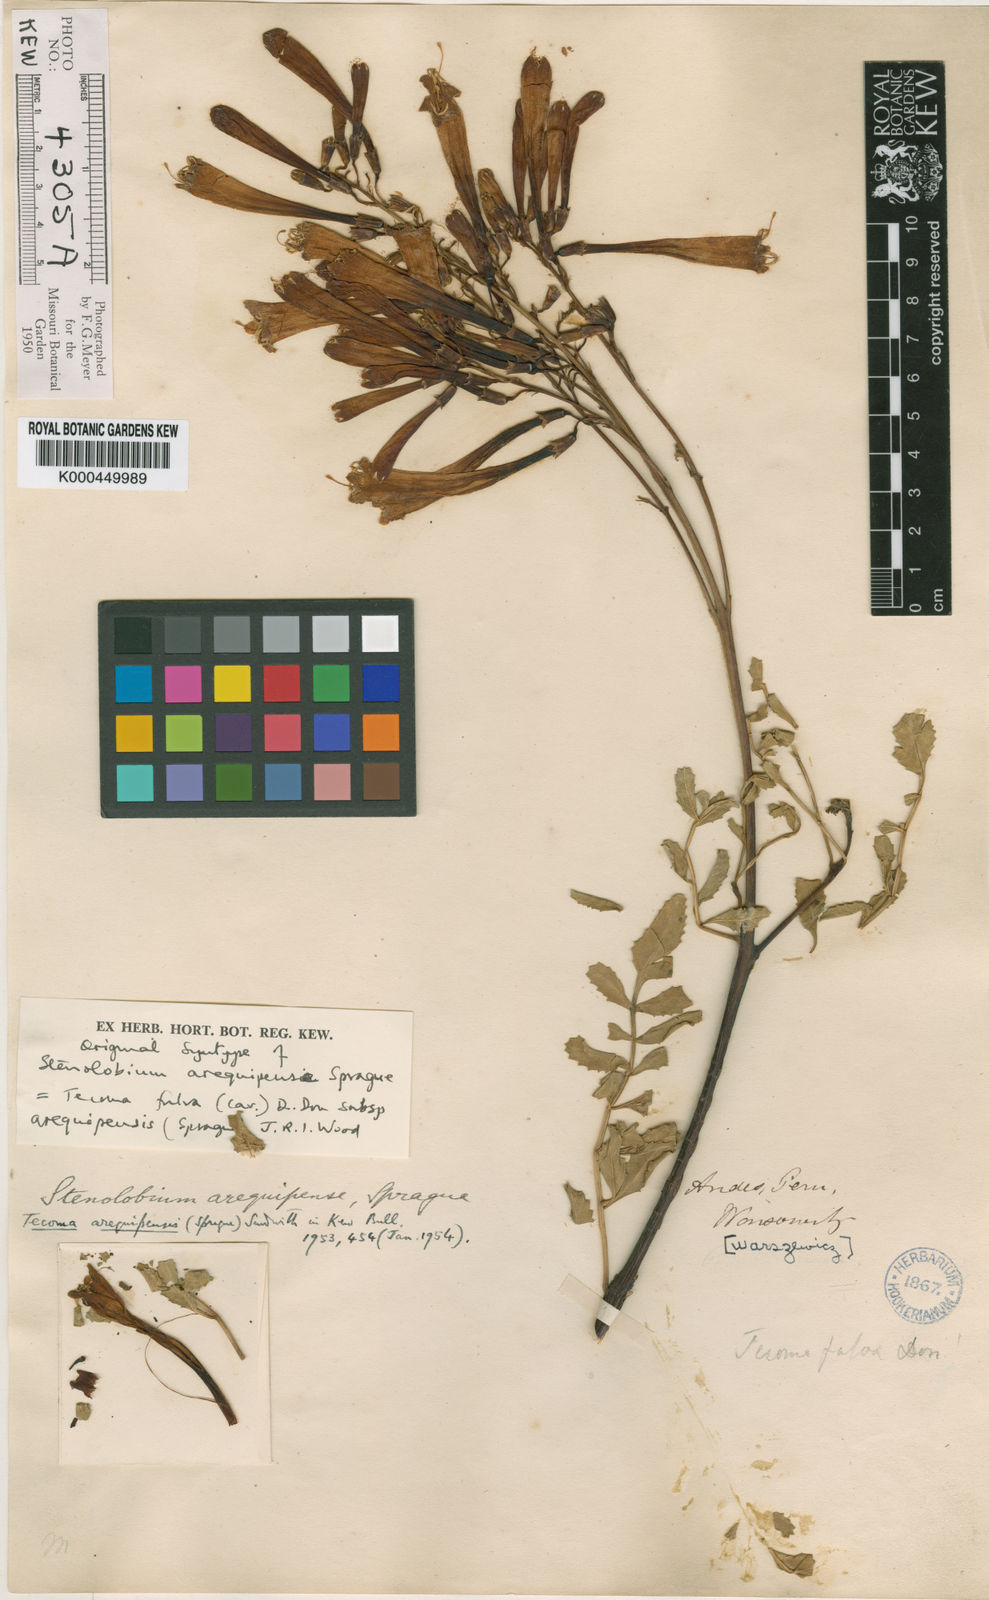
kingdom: Plantae
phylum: Tracheophyta
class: Magnoliopsida
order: Lamiales
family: Bignoniaceae
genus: Tecoma
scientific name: Tecoma fulva
